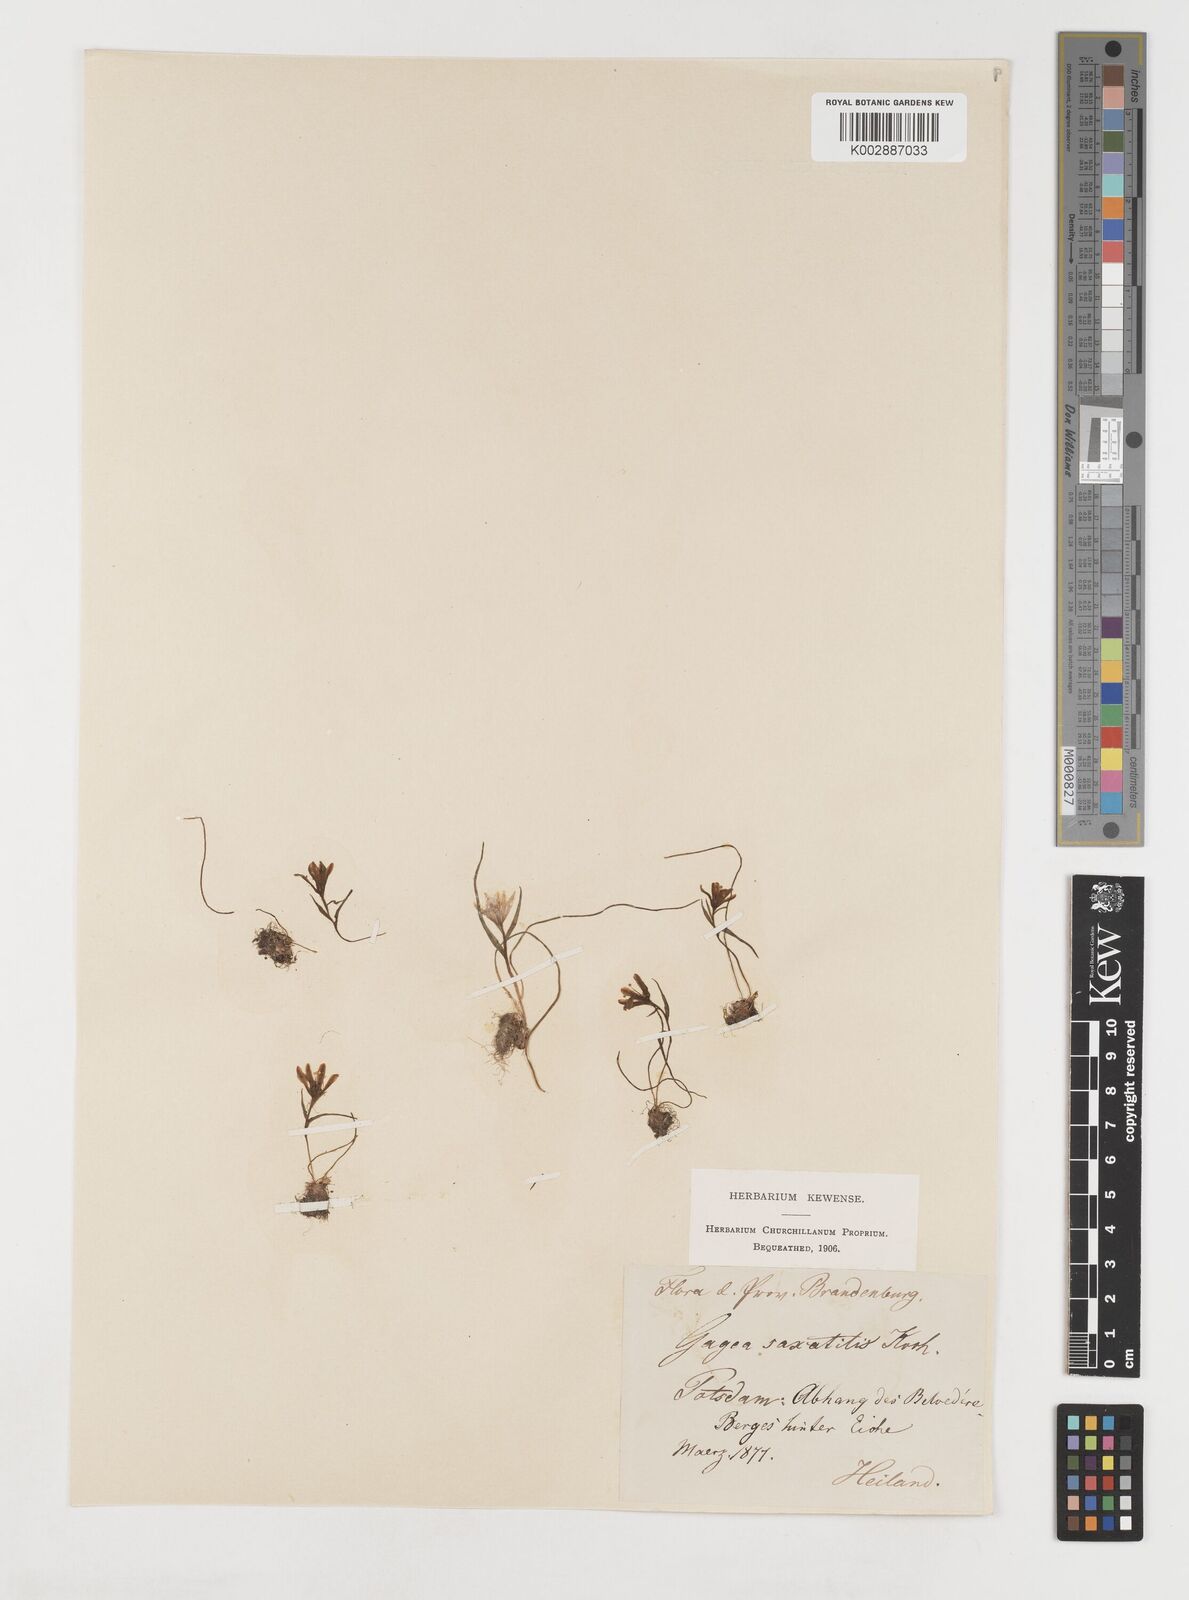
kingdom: Plantae
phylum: Tracheophyta
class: Liliopsida
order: Liliales
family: Liliaceae
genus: Gagea
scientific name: Gagea bohemica
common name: Early star-of-bethlehem
